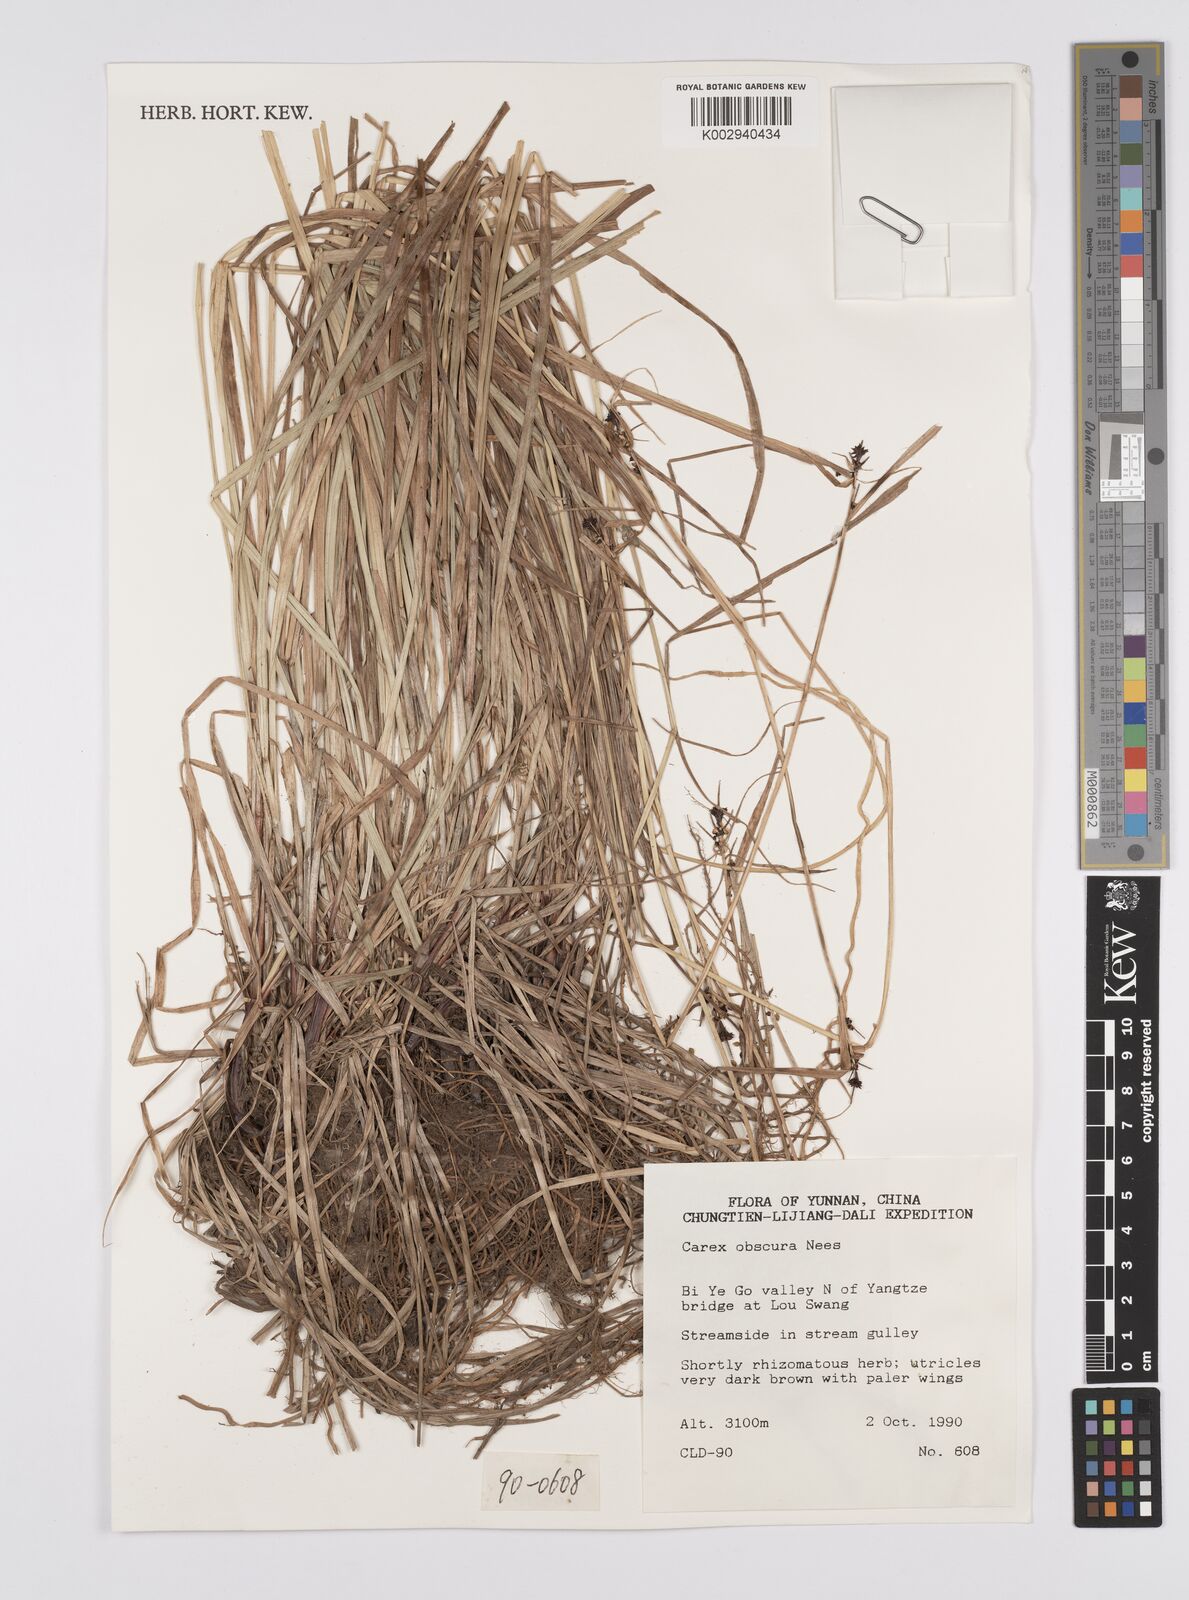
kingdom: Plantae
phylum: Tracheophyta
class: Liliopsida
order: Poales
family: Cyperaceae
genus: Carex
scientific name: Carex obscura
